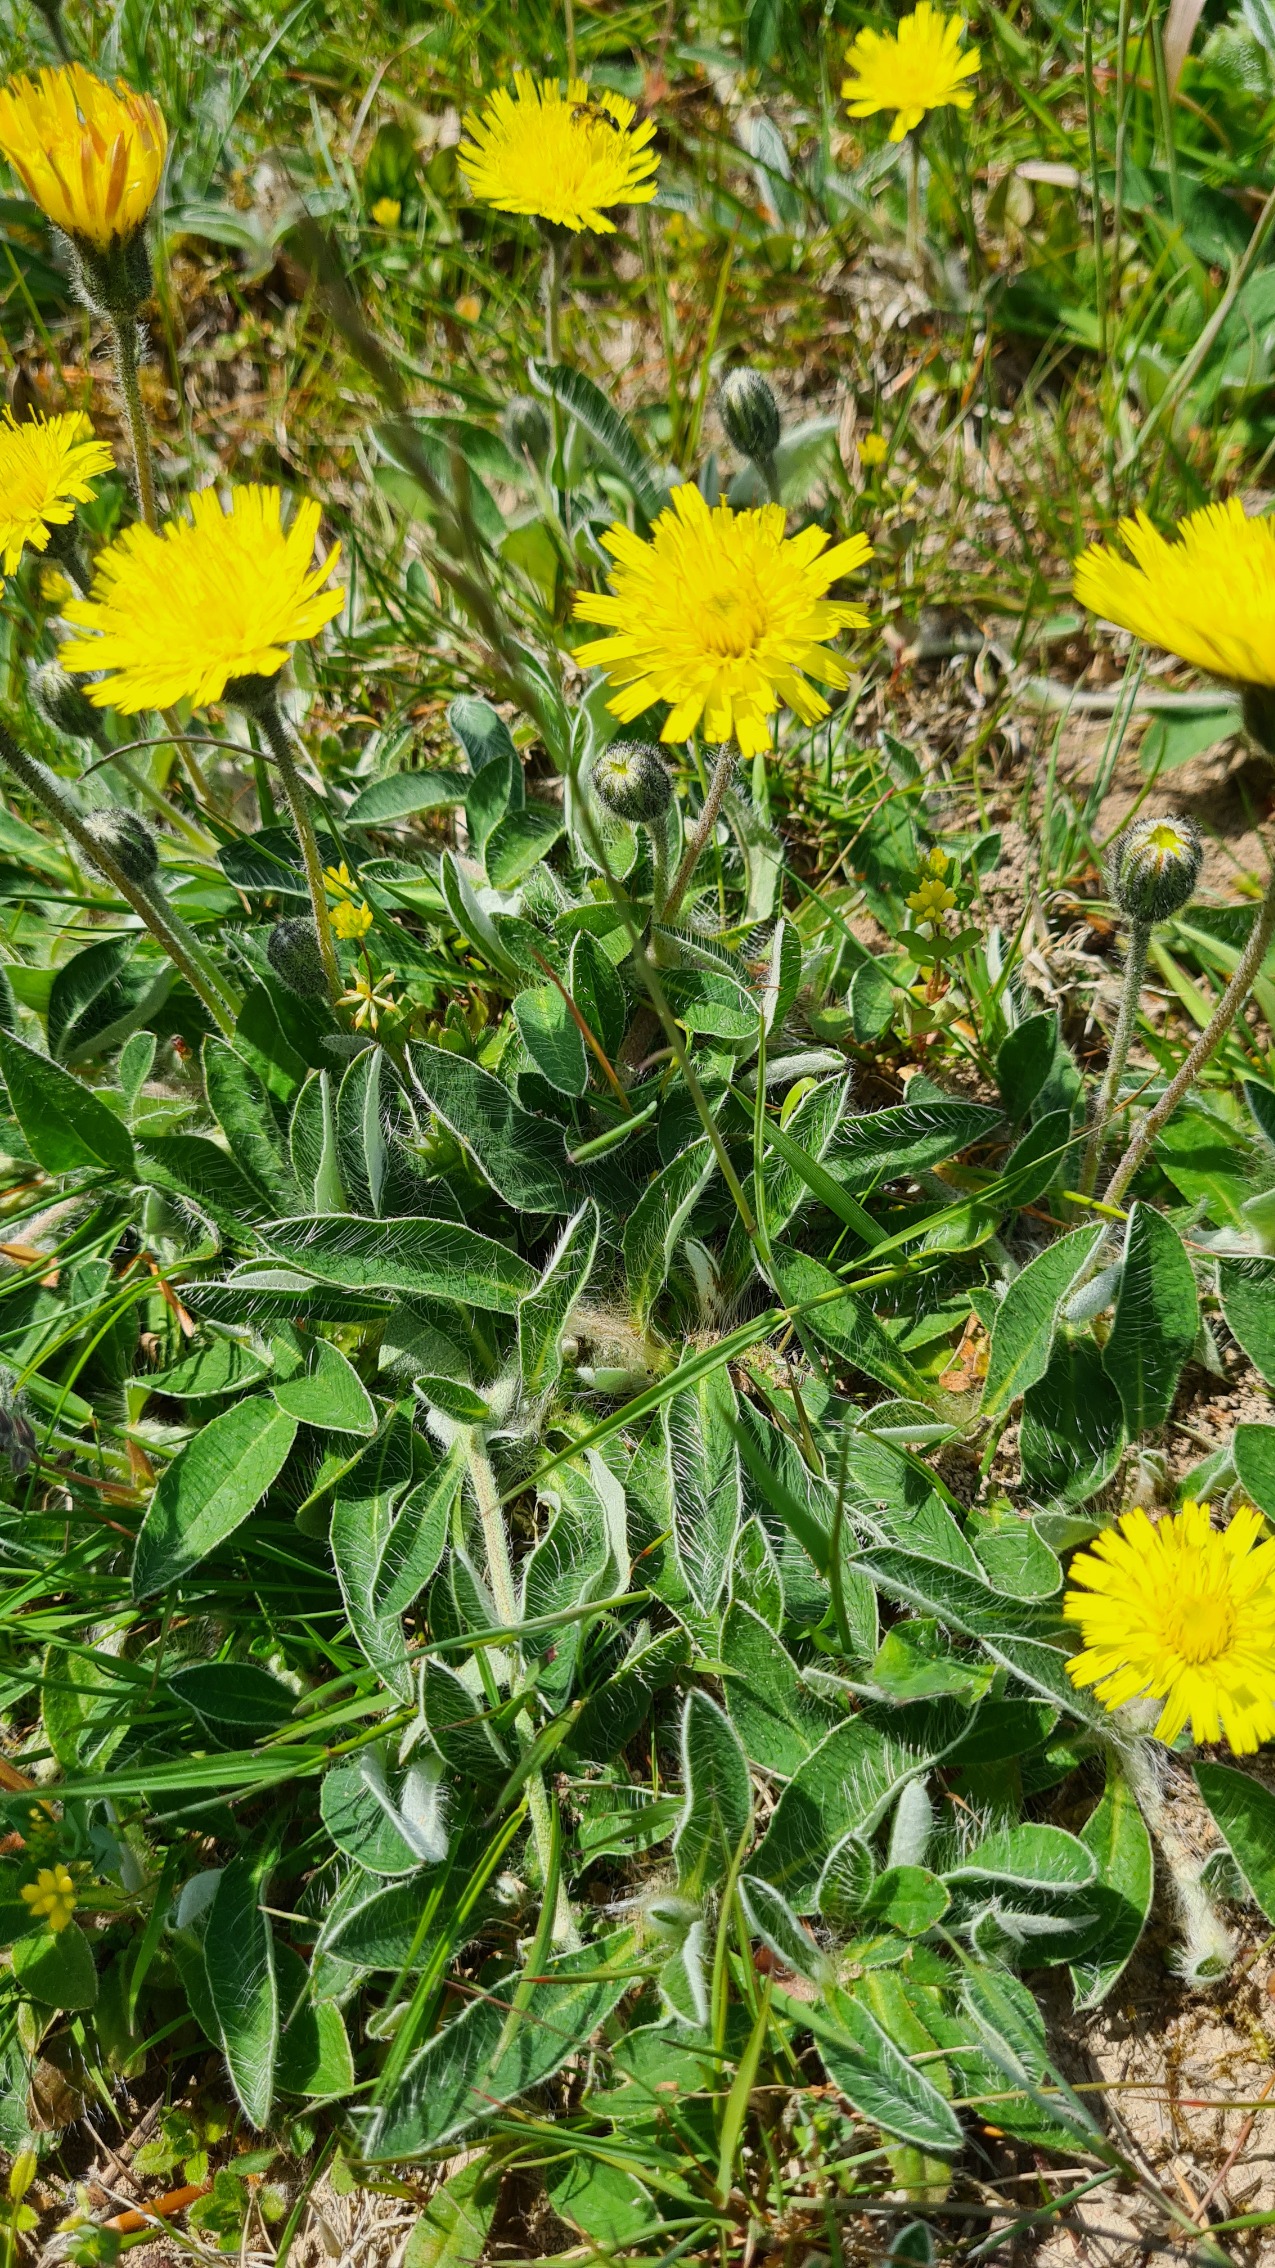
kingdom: Plantae
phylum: Tracheophyta
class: Magnoliopsida
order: Asterales
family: Asteraceae
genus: Pilosella
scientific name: Pilosella officinarum
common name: Håret høgeurt
